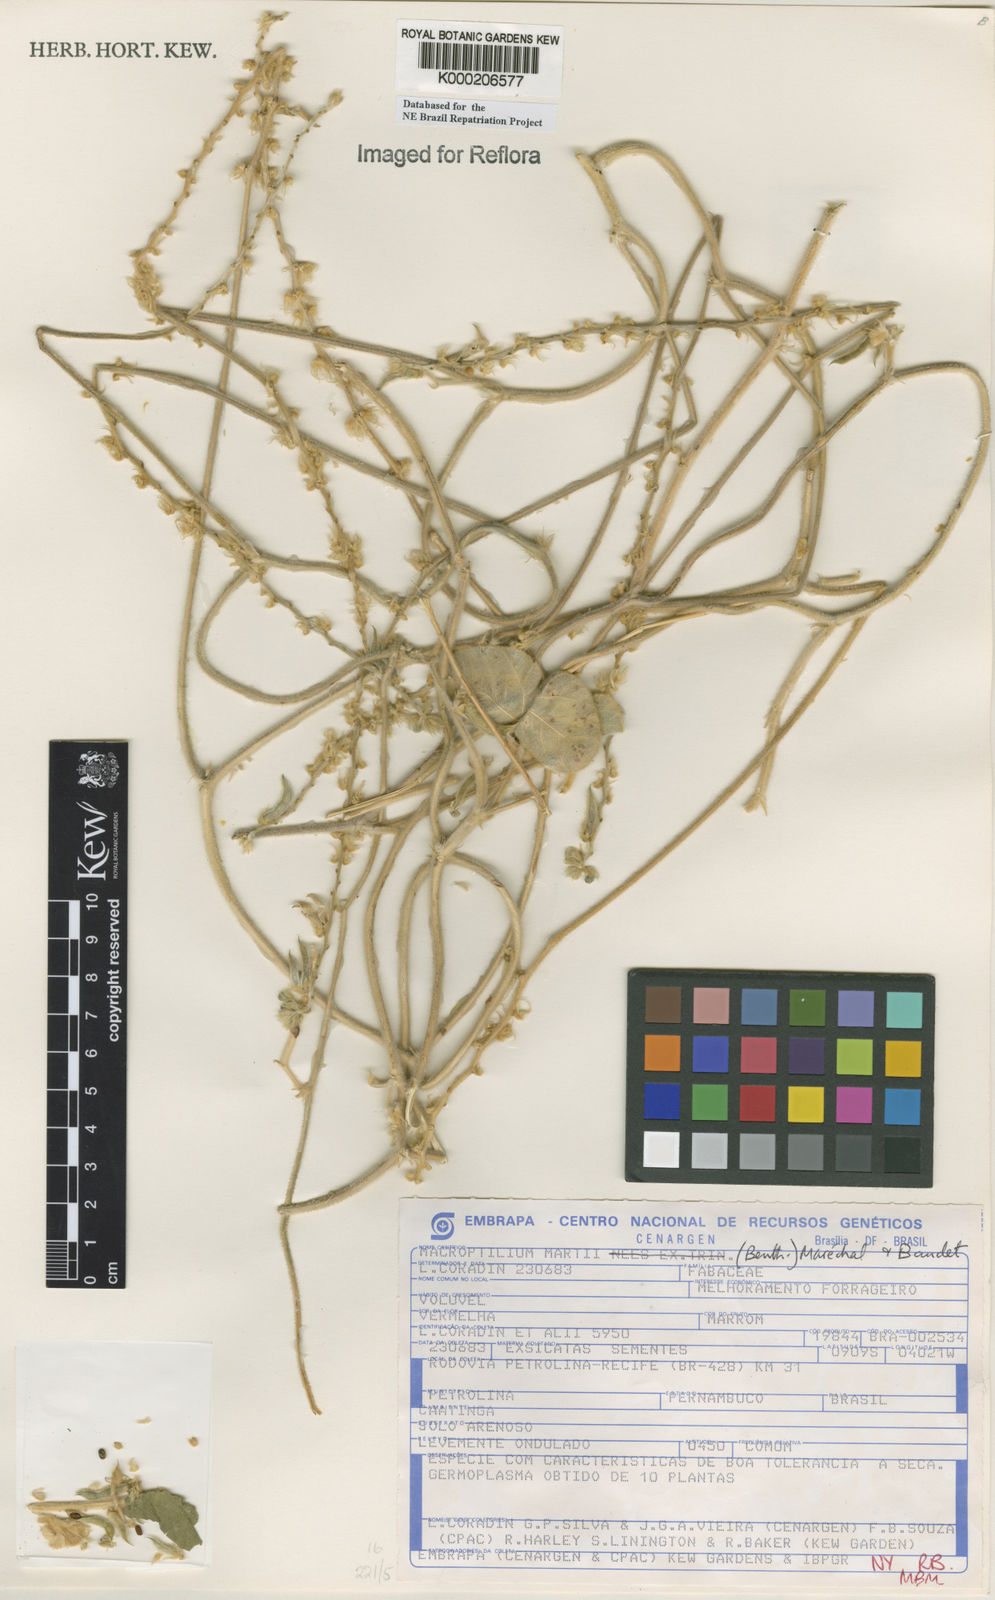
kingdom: Plantae
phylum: Tracheophyta
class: Magnoliopsida
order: Fabales
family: Fabaceae
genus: Macroptilium
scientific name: Macroptilium
